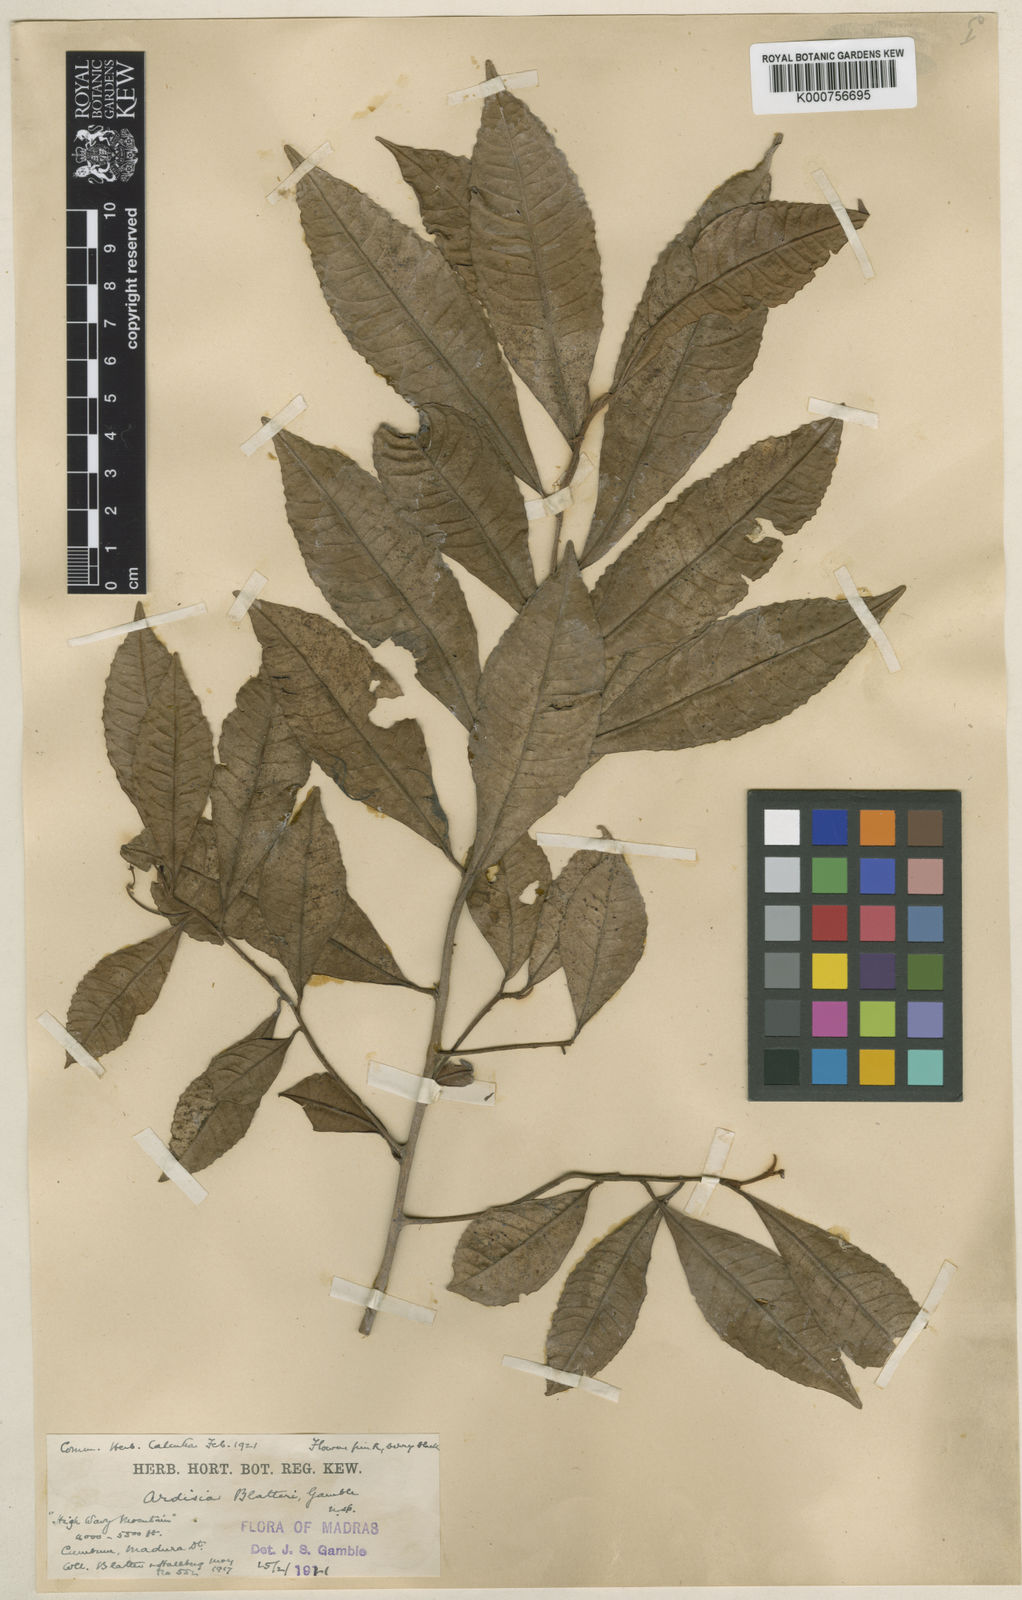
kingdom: Plantae
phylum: Tracheophyta
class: Magnoliopsida
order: Ericales
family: Primulaceae
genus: Ardisia
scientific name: Ardisia blatteri
